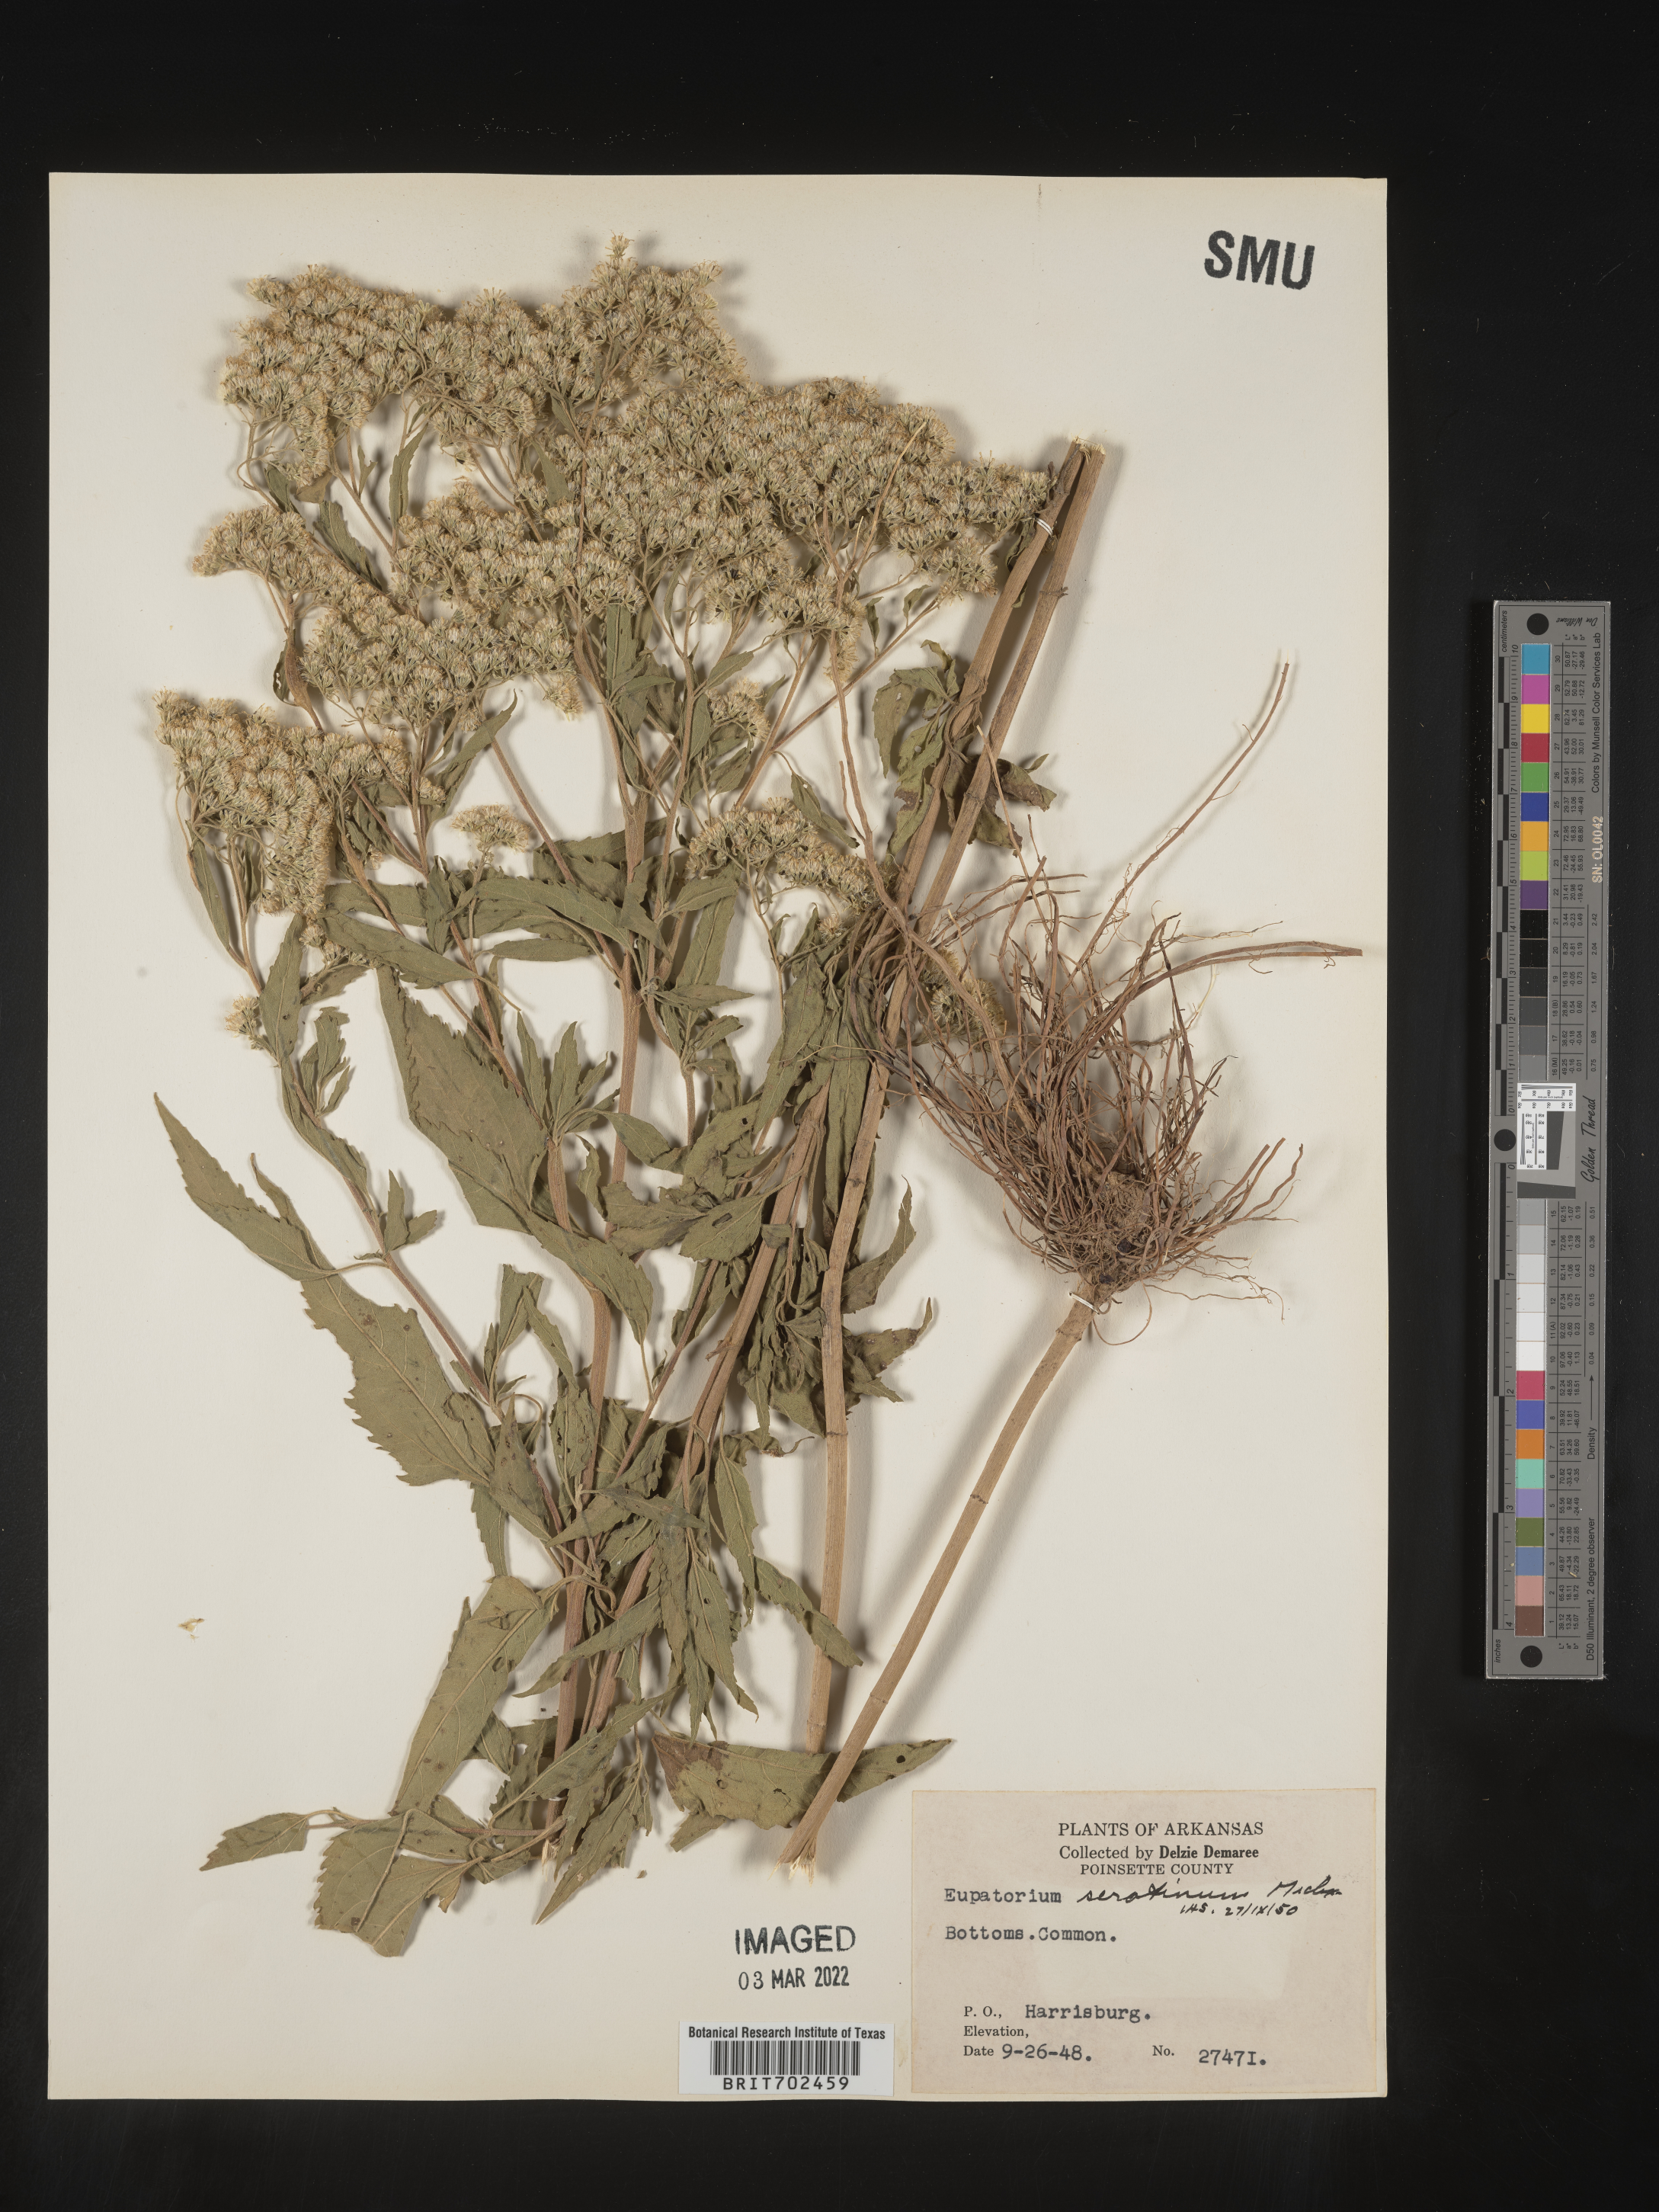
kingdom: Plantae
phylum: Tracheophyta
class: Magnoliopsida
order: Asterales
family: Asteraceae
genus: Eupatorium
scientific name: Eupatorium serotinum
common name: Late boneset
